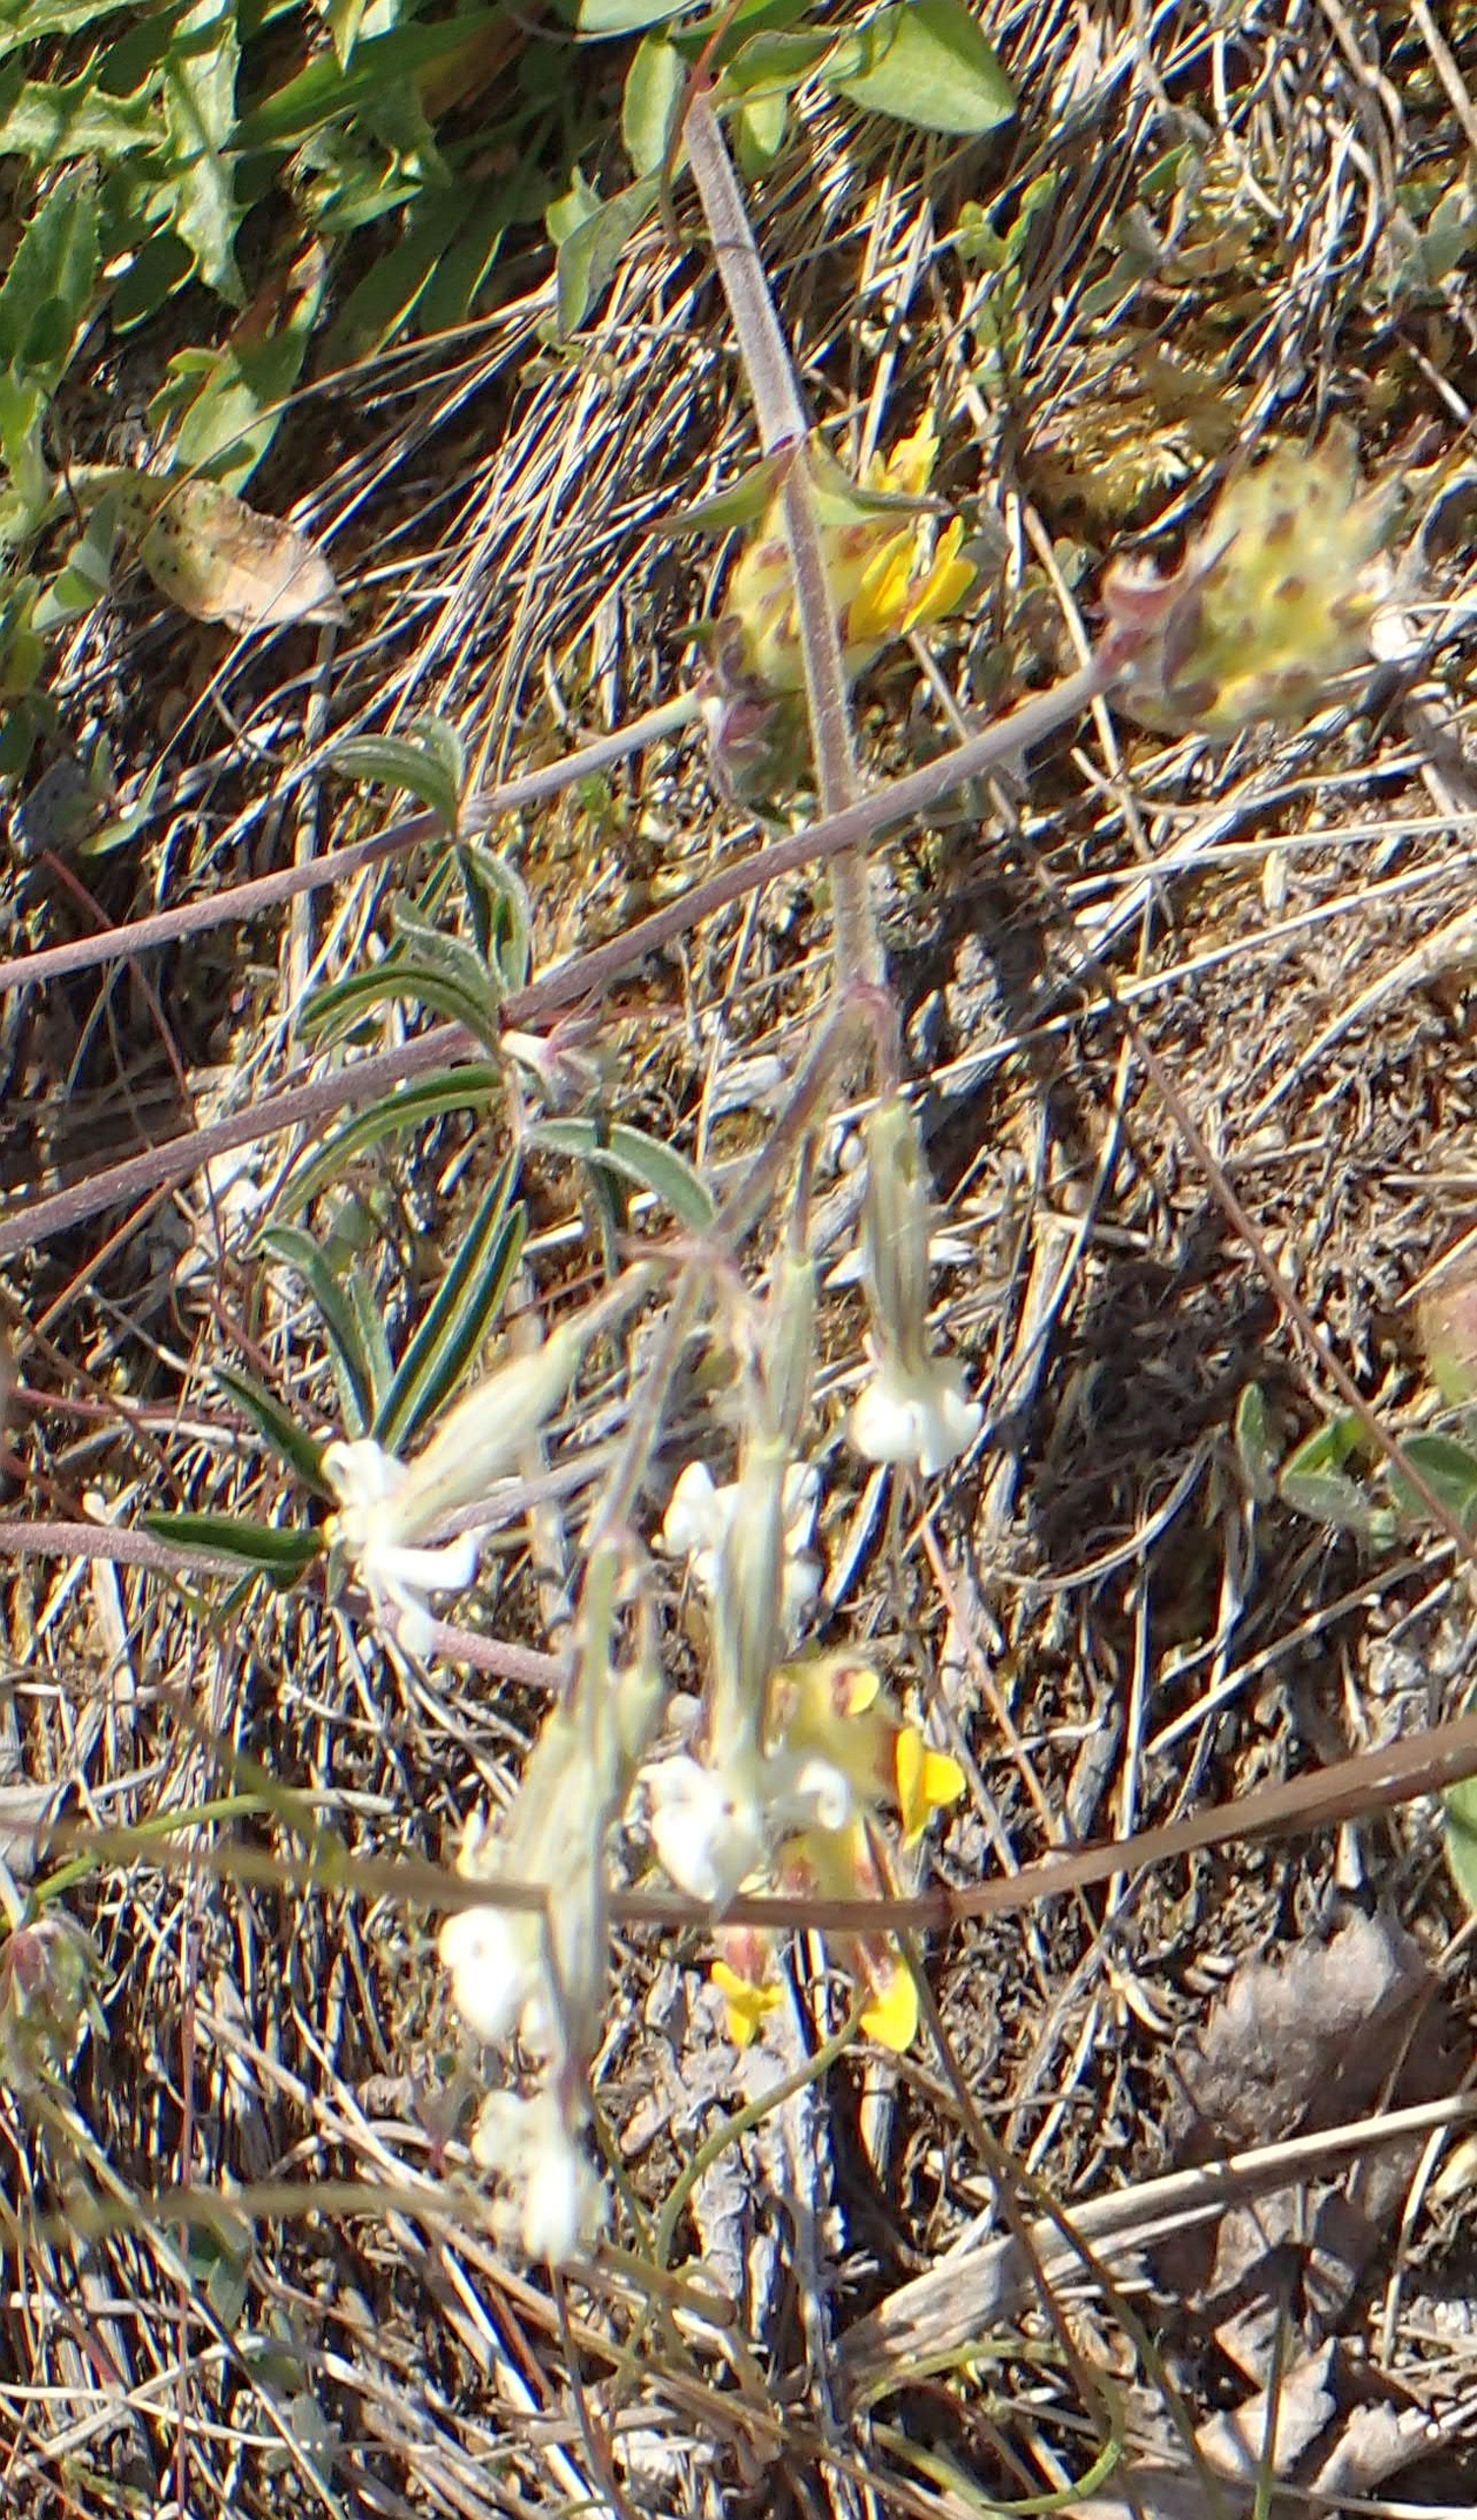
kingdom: Plantae
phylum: Tracheophyta
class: Magnoliopsida
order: Caryophyllales
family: Caryophyllaceae
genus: Silene
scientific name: Silene nutans
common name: Nikkende limurt
